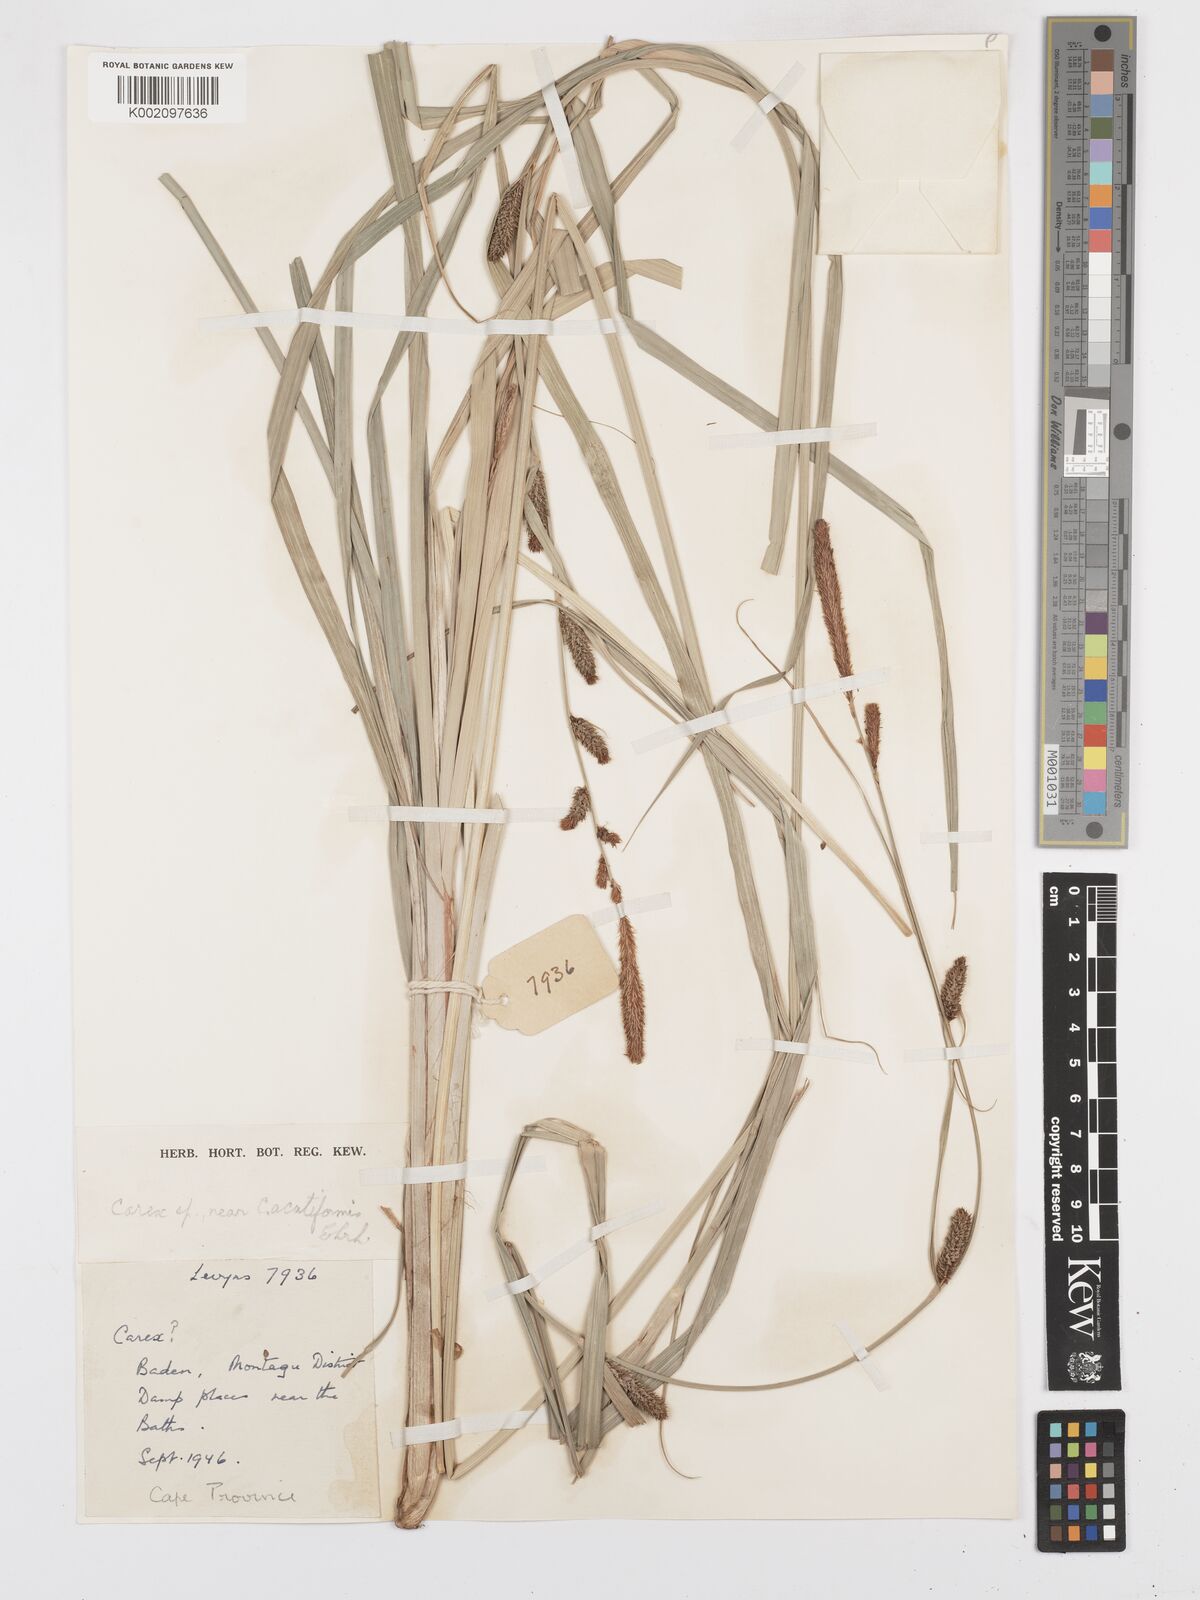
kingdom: Plantae
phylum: Tracheophyta
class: Liliopsida
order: Poales
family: Cyperaceae
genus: Carex
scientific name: Carex acutiformis
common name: Lesser pond-sedge
